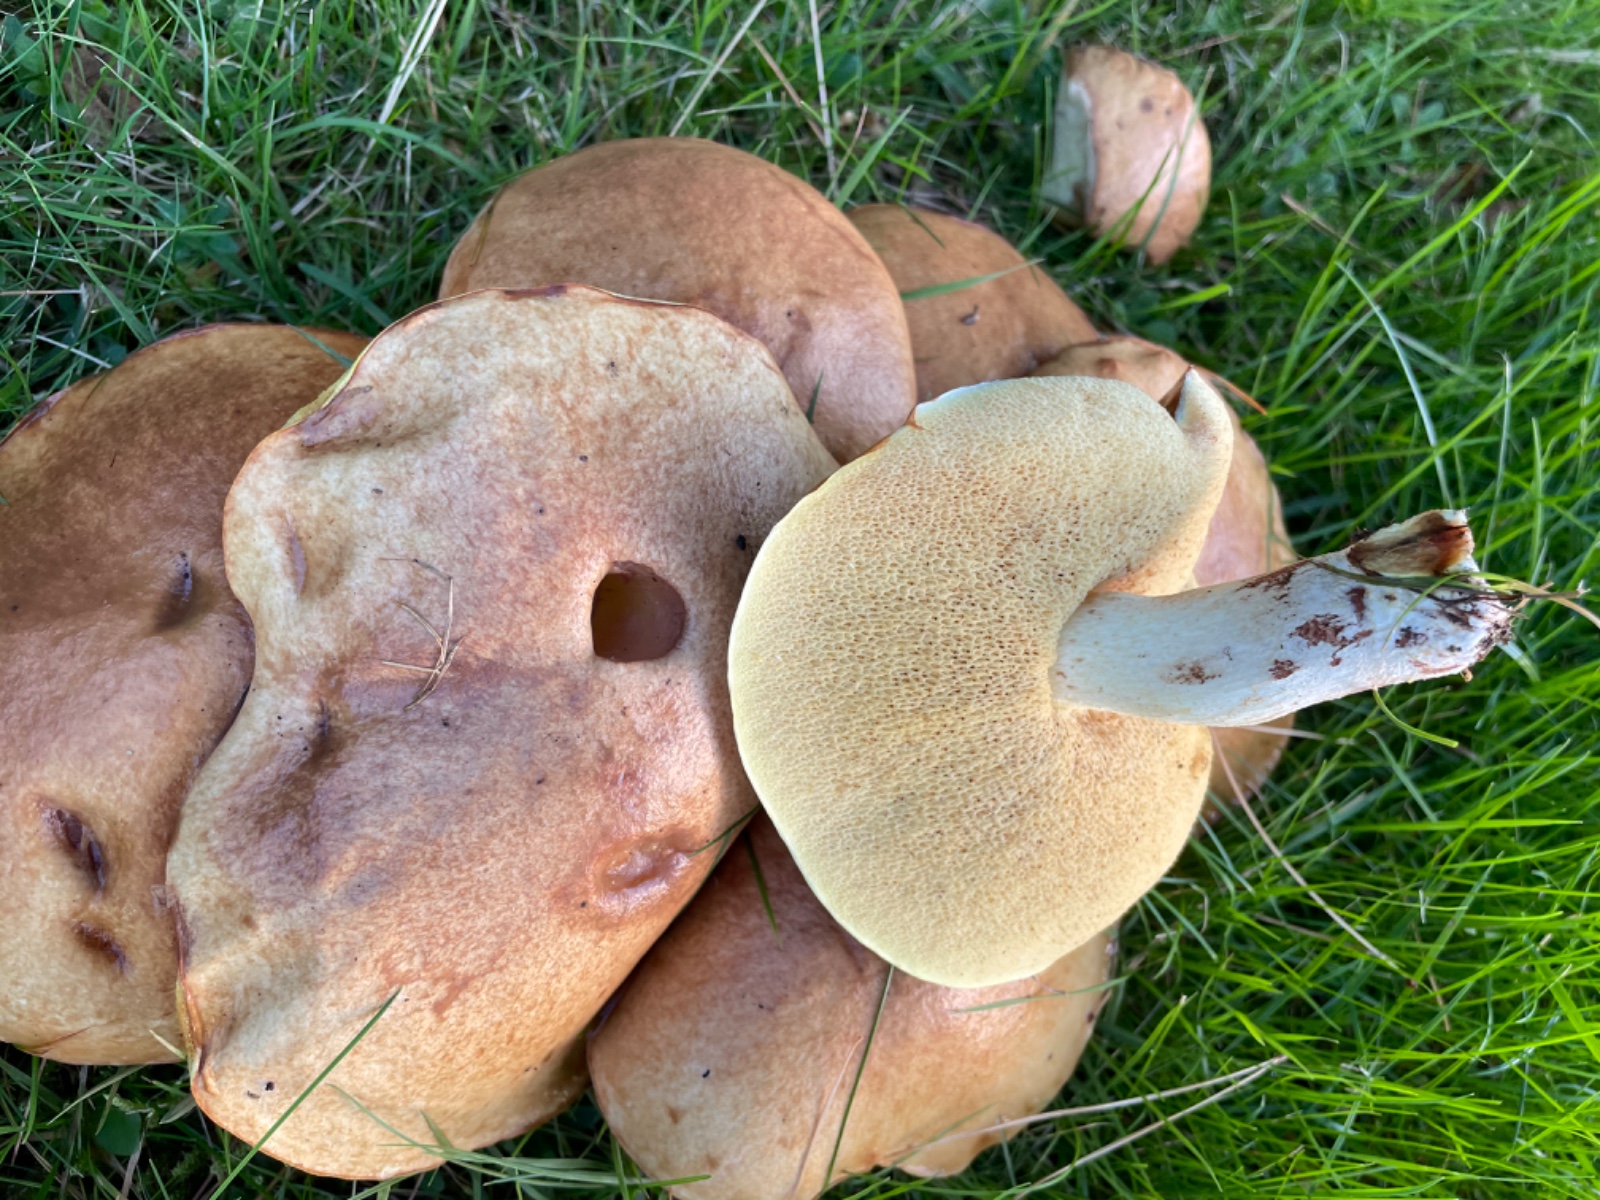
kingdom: Fungi
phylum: Basidiomycota
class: Agaricomycetes
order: Boletales
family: Suillaceae
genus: Suillus
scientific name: Suillus granulatus
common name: kornet slimrørhat
